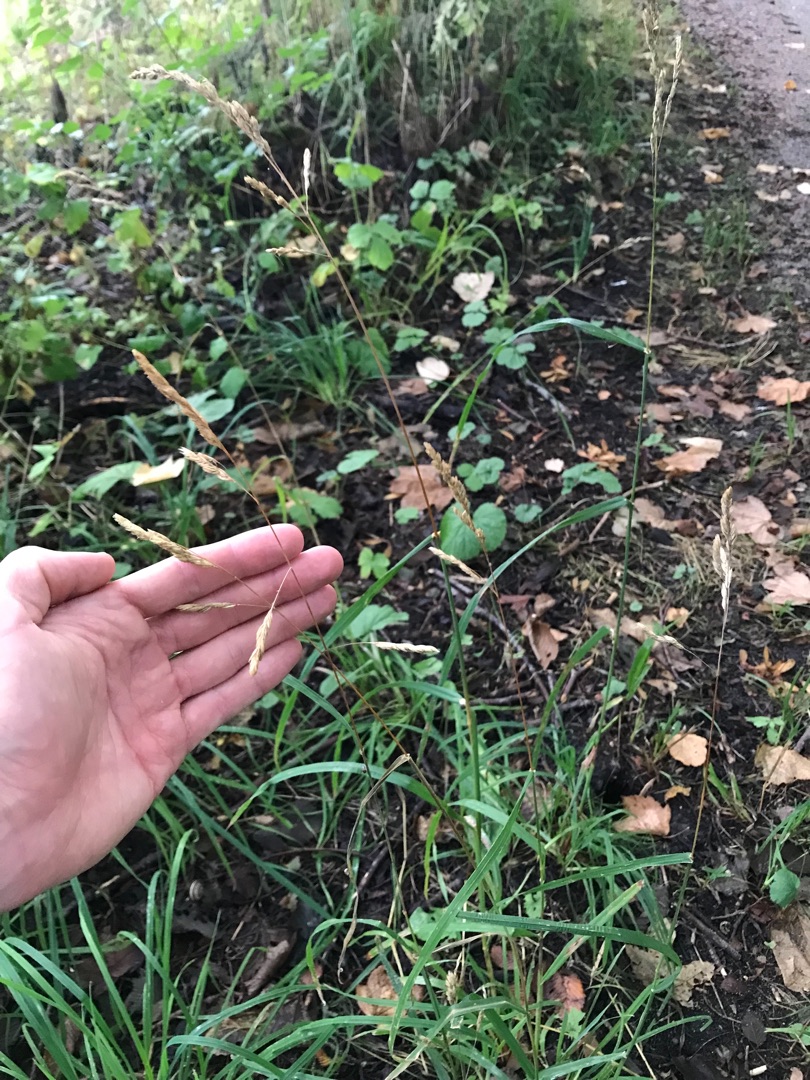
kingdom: Plantae
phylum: Tracheophyta
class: Liliopsida
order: Poales
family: Poaceae
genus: Dactylis
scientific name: Dactylis glomerata
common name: Almindelig hundegræs
